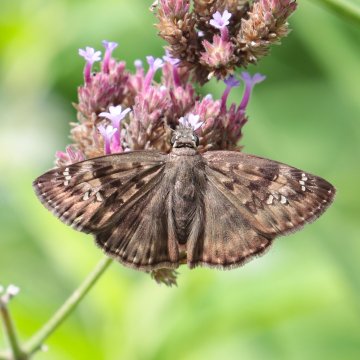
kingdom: Animalia
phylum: Arthropoda
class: Insecta
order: Lepidoptera
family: Hesperiidae
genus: Gesta
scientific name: Gesta
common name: Horace's Duskywing
